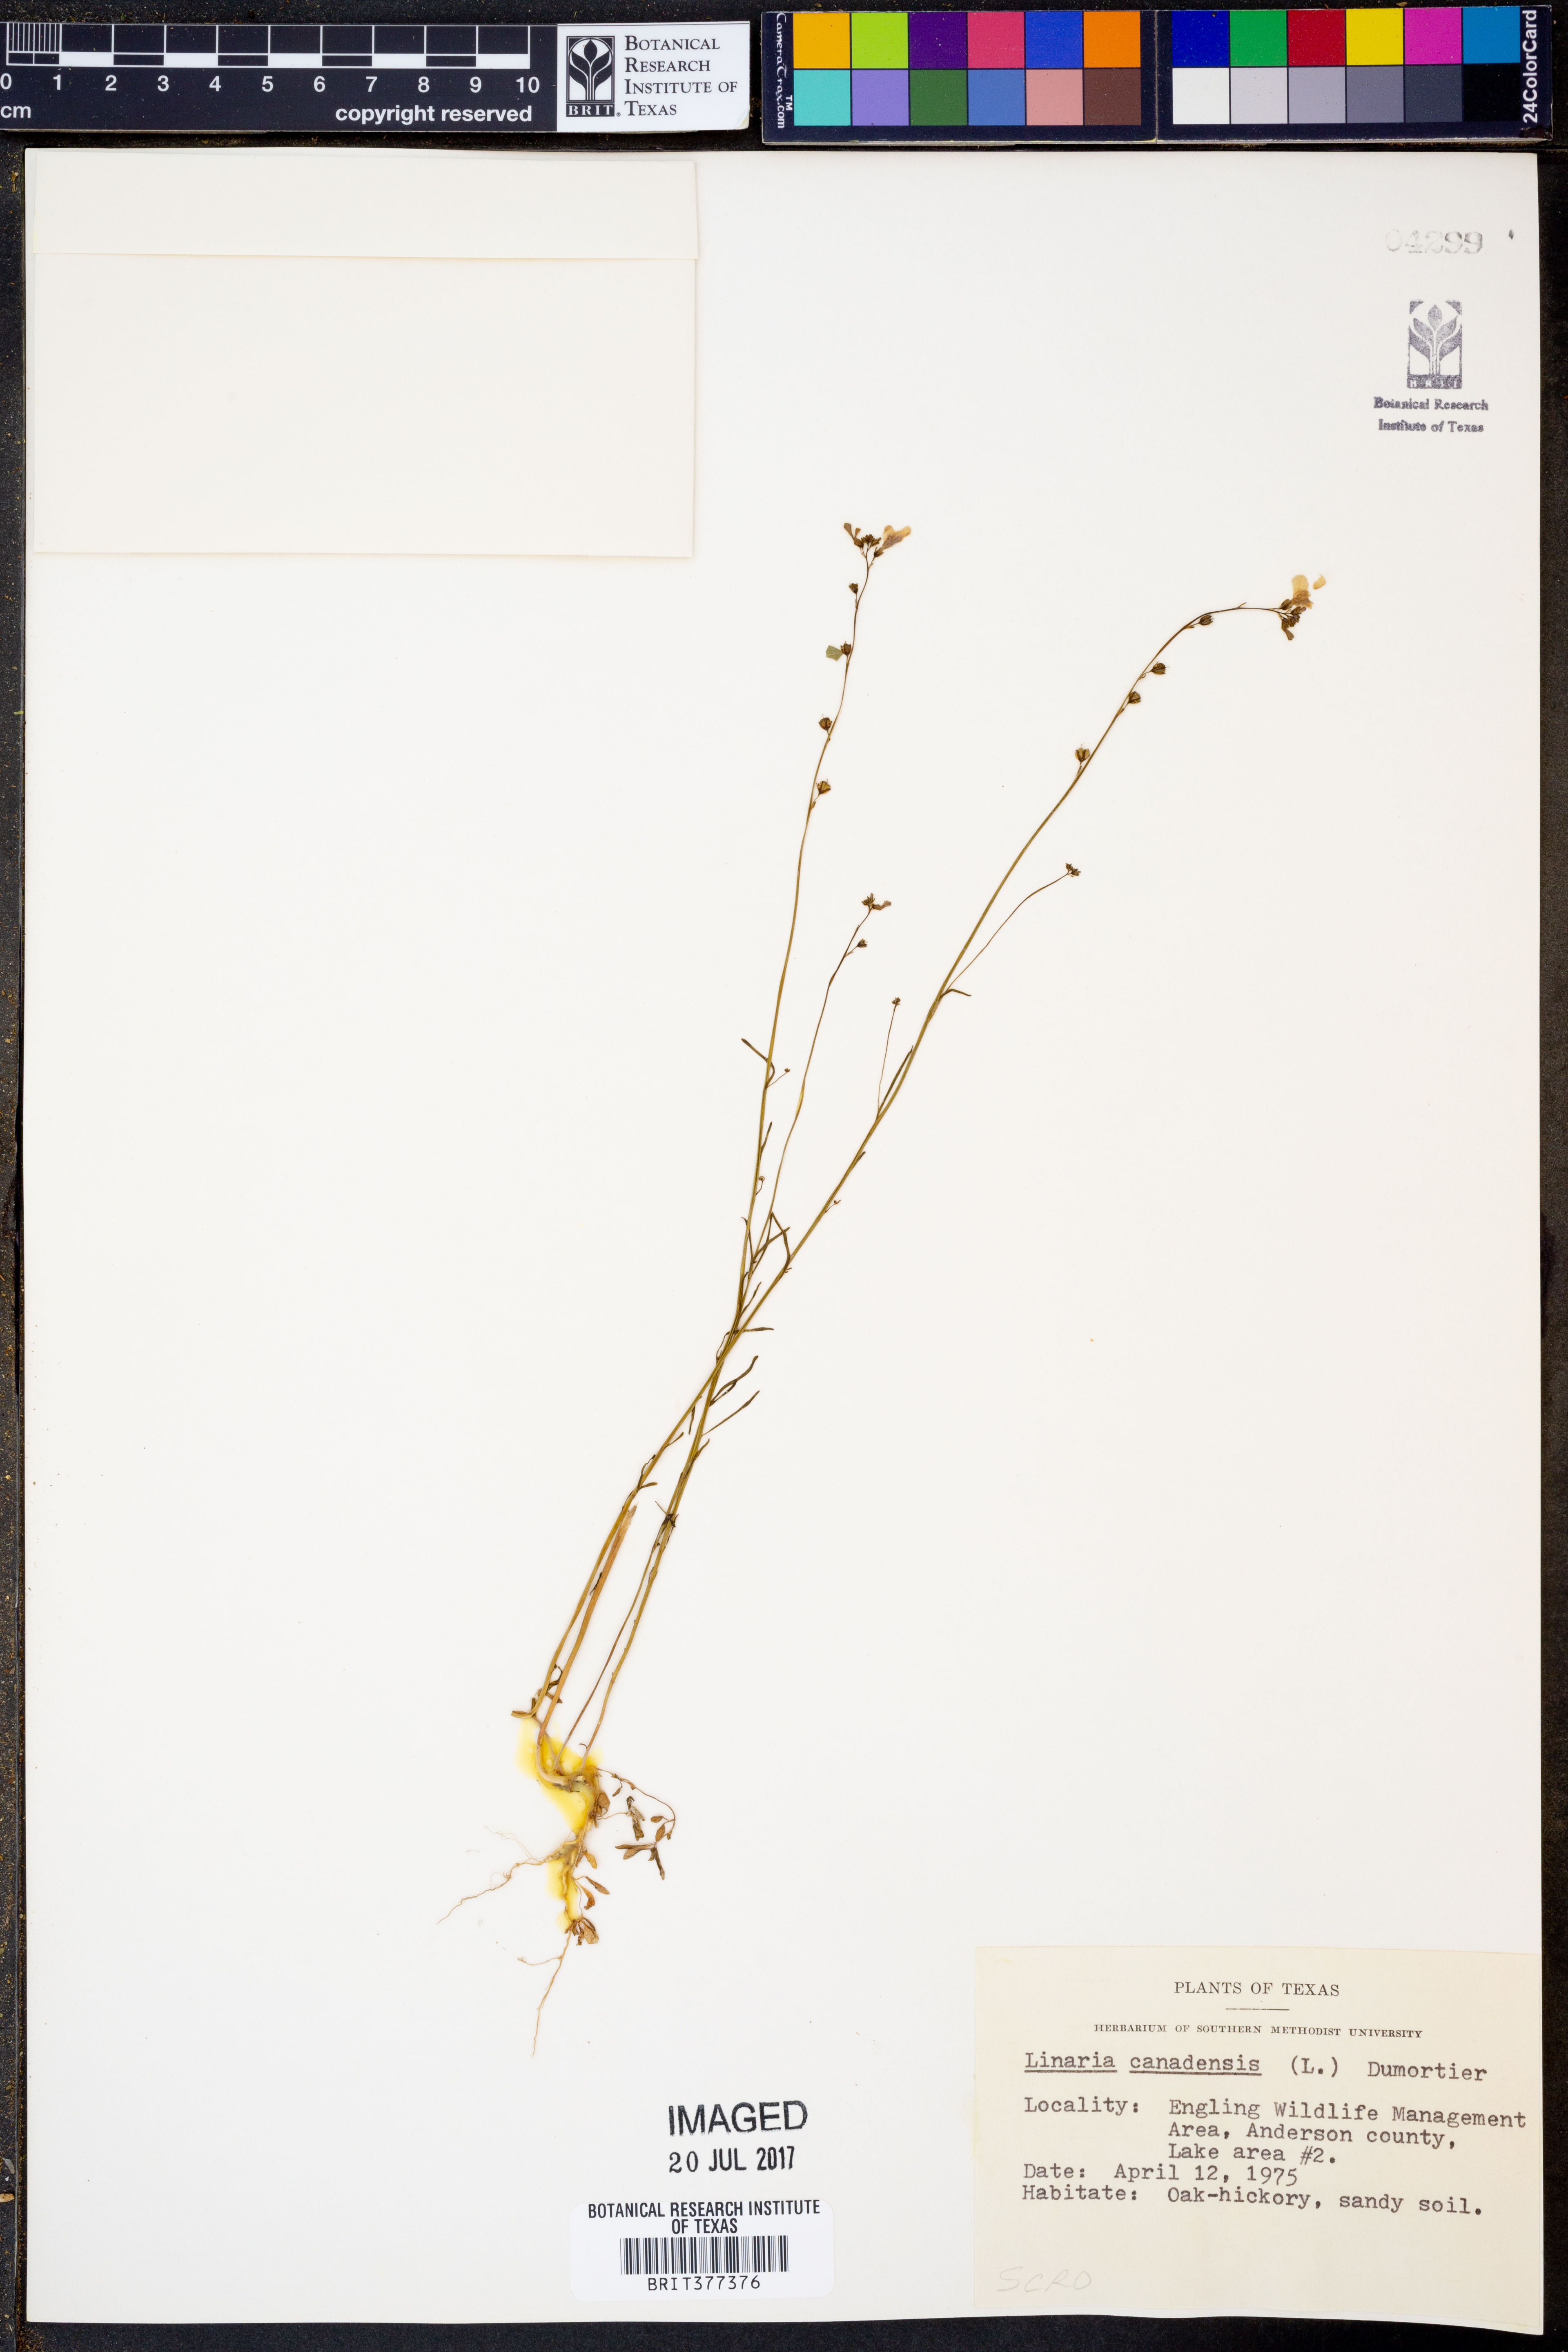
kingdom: Plantae
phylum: Tracheophyta
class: Magnoliopsida
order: Lamiales
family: Plantaginaceae
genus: Nuttallanthus
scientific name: Nuttallanthus canadensis
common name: Blue toadflax
